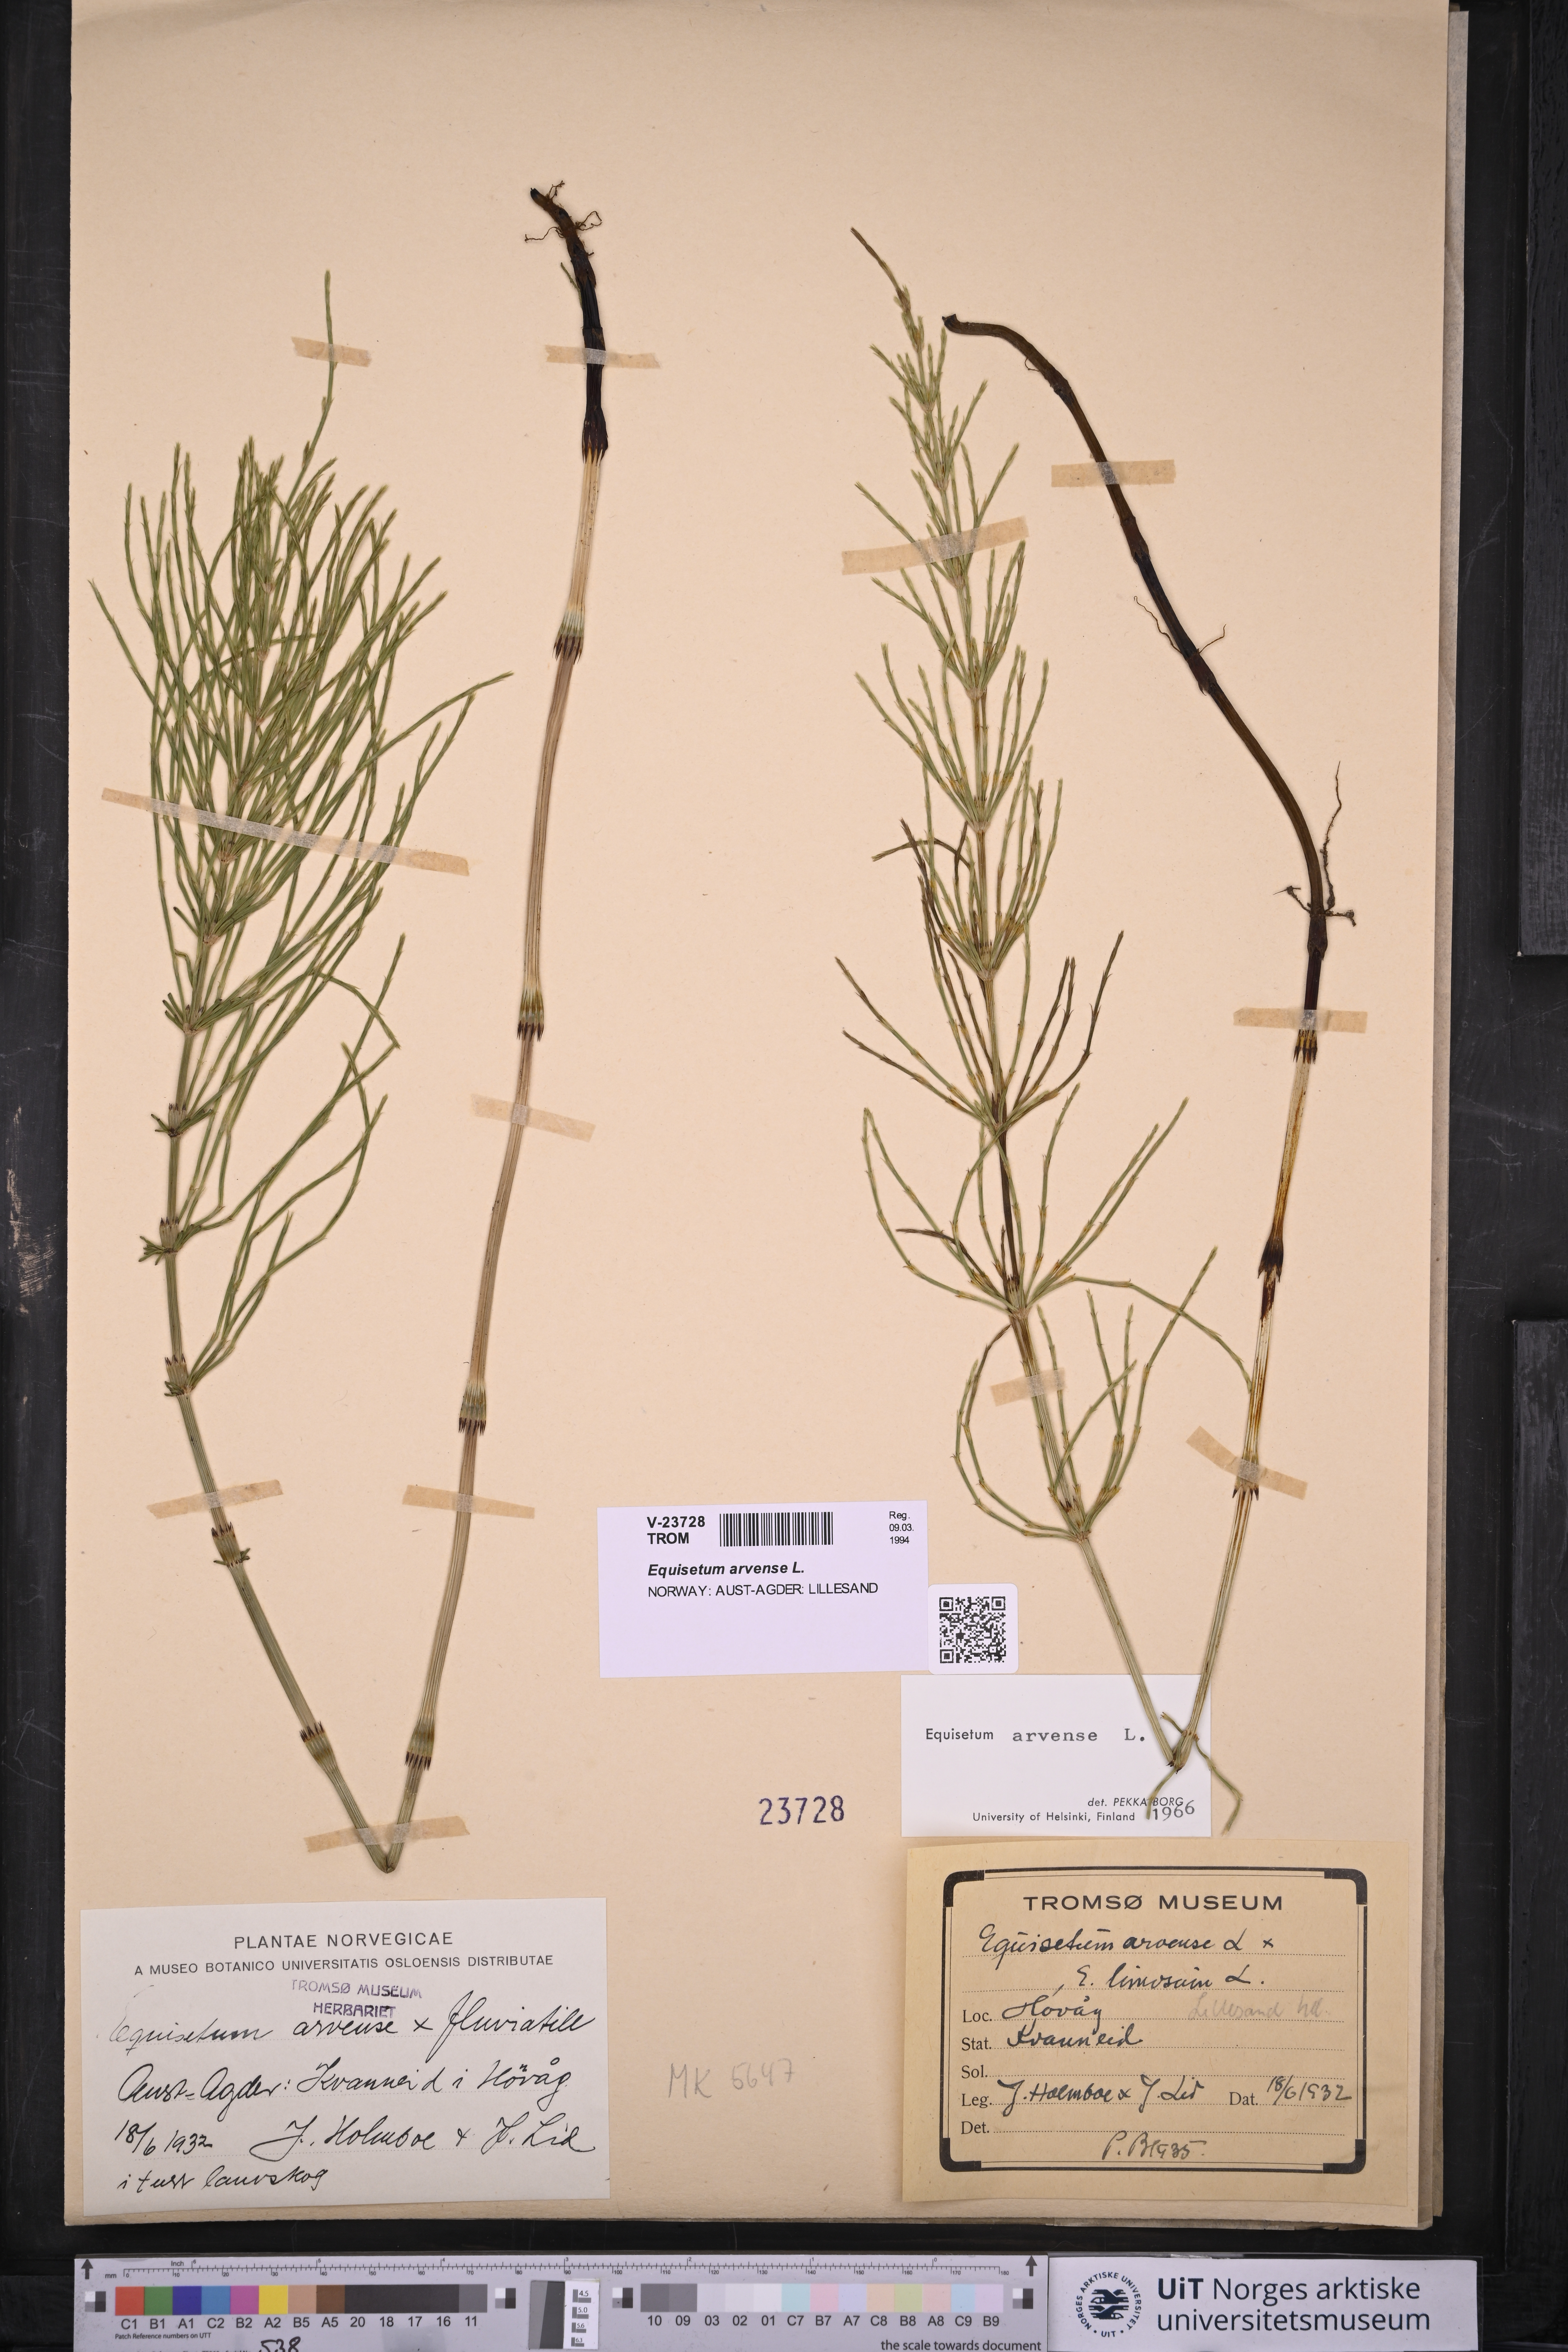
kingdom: Plantae
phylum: Tracheophyta
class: Polypodiopsida
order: Equisetales
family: Equisetaceae
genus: Equisetum
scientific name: Equisetum arvense
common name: Field horsetail
